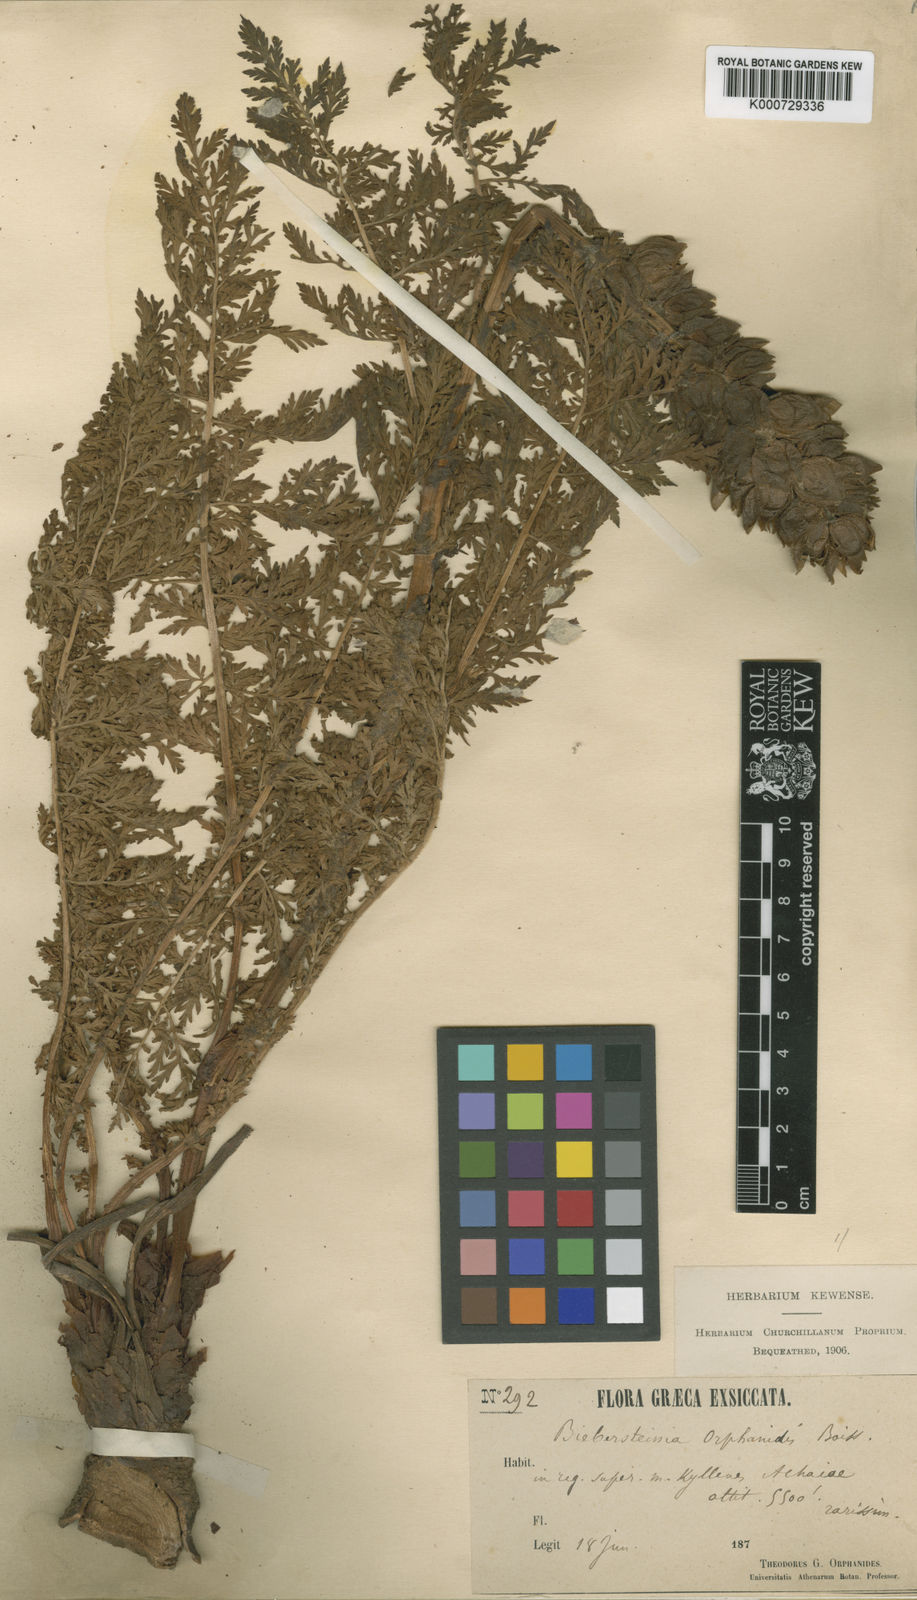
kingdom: Plantae
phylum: Tracheophyta
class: Magnoliopsida
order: Sapindales
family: Biebersteiniaceae
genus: Biebersteinia
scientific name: Biebersteinia orphanidis
